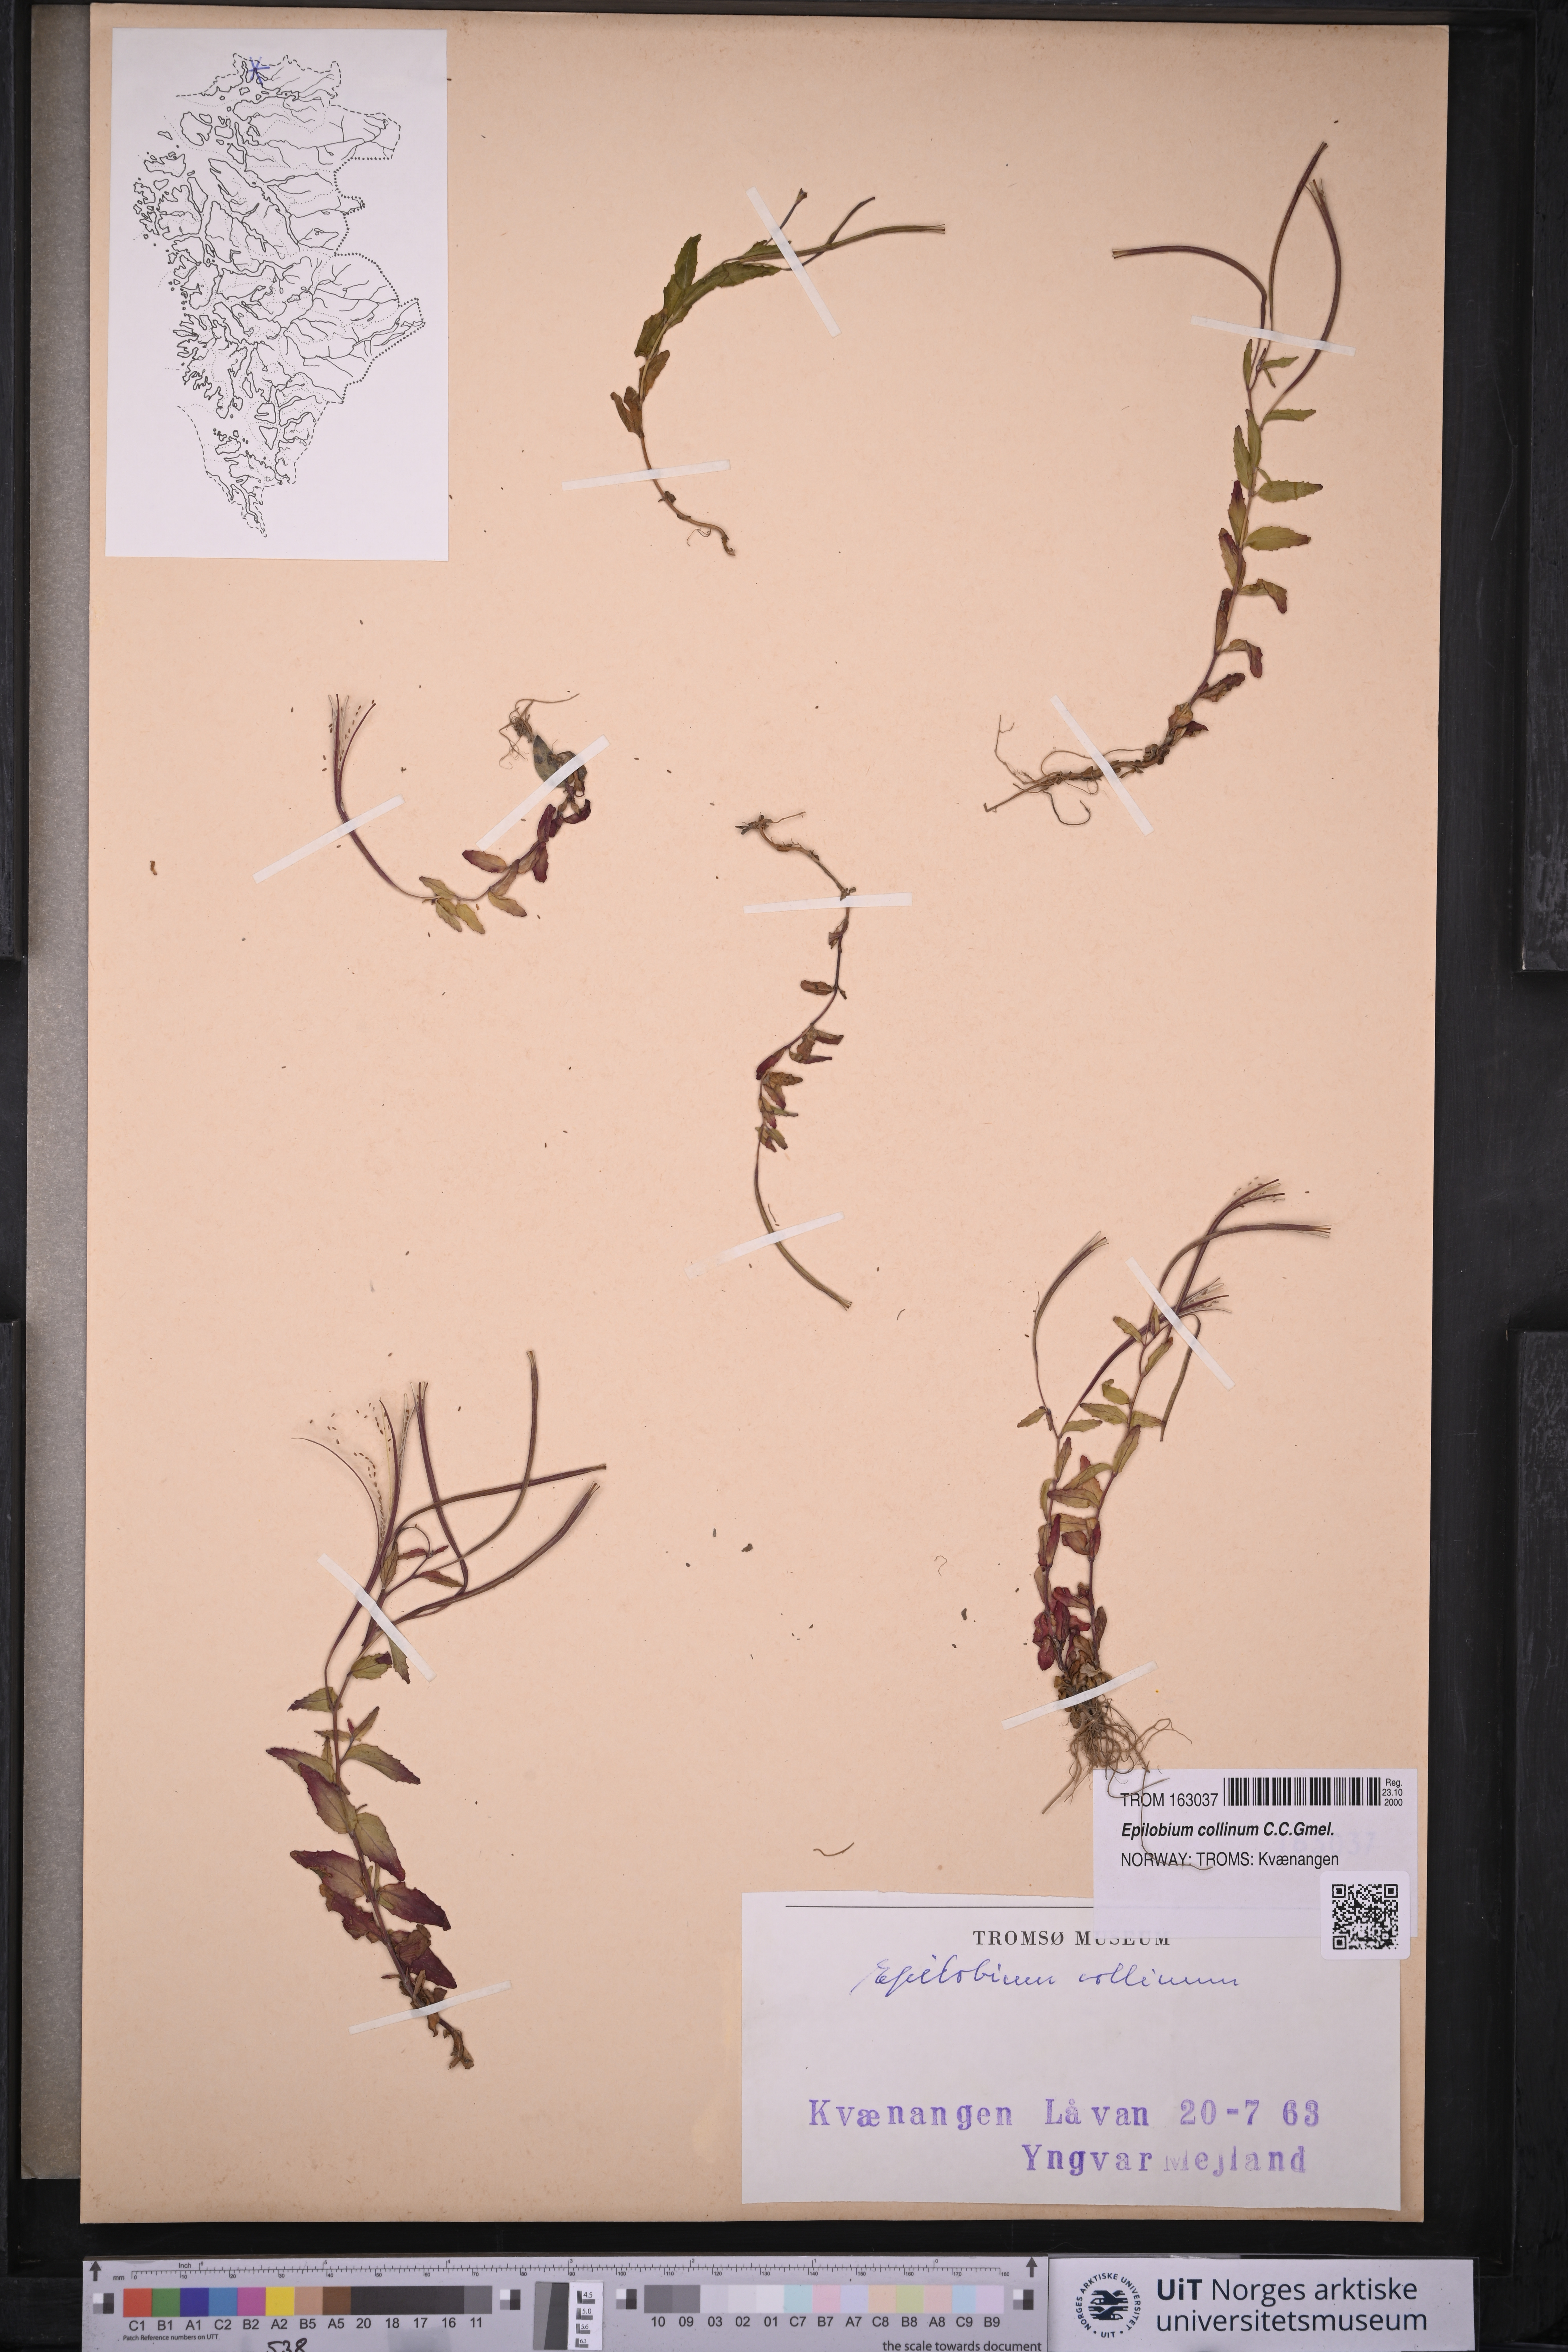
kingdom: Plantae
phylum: Tracheophyta
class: Magnoliopsida
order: Myrtales
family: Onagraceae
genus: Epilobium
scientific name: Epilobium collinum
